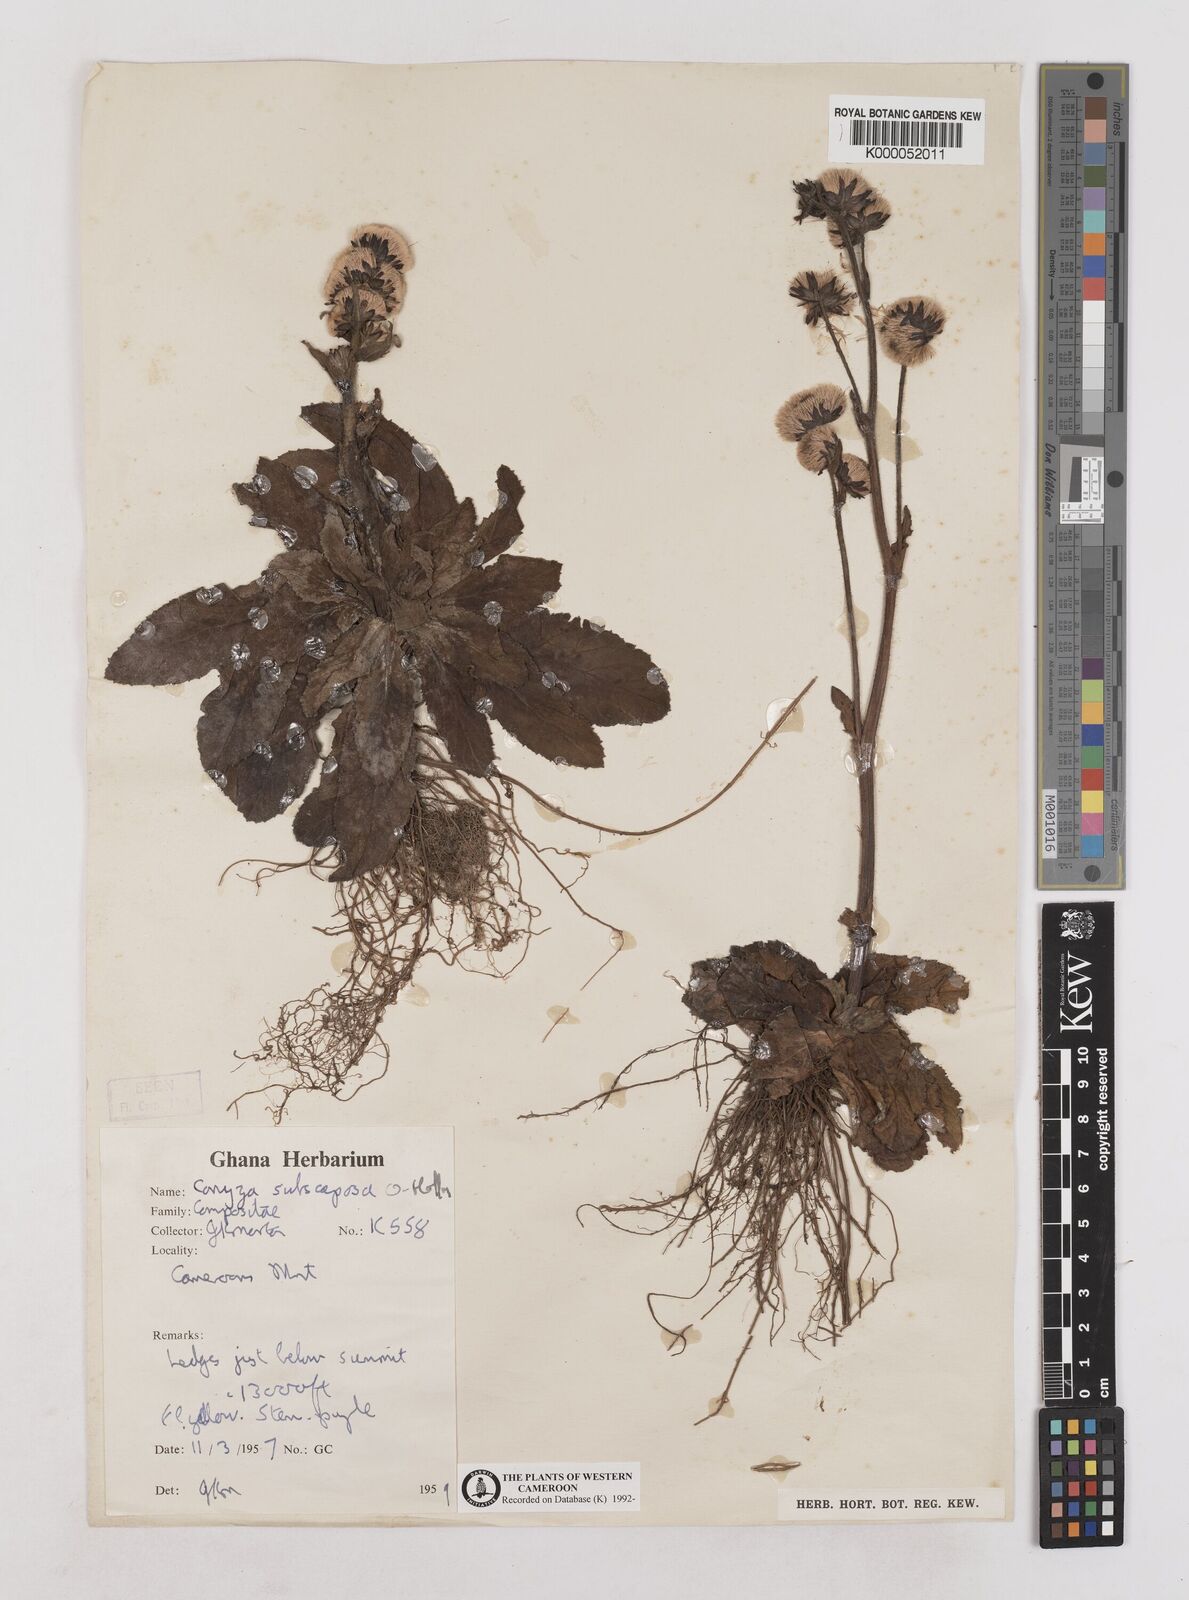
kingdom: Plantae
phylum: Tracheophyta
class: Magnoliopsida
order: Asterales
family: Asteraceae
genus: Eschenbachia
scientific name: Eschenbachia subscaposa
